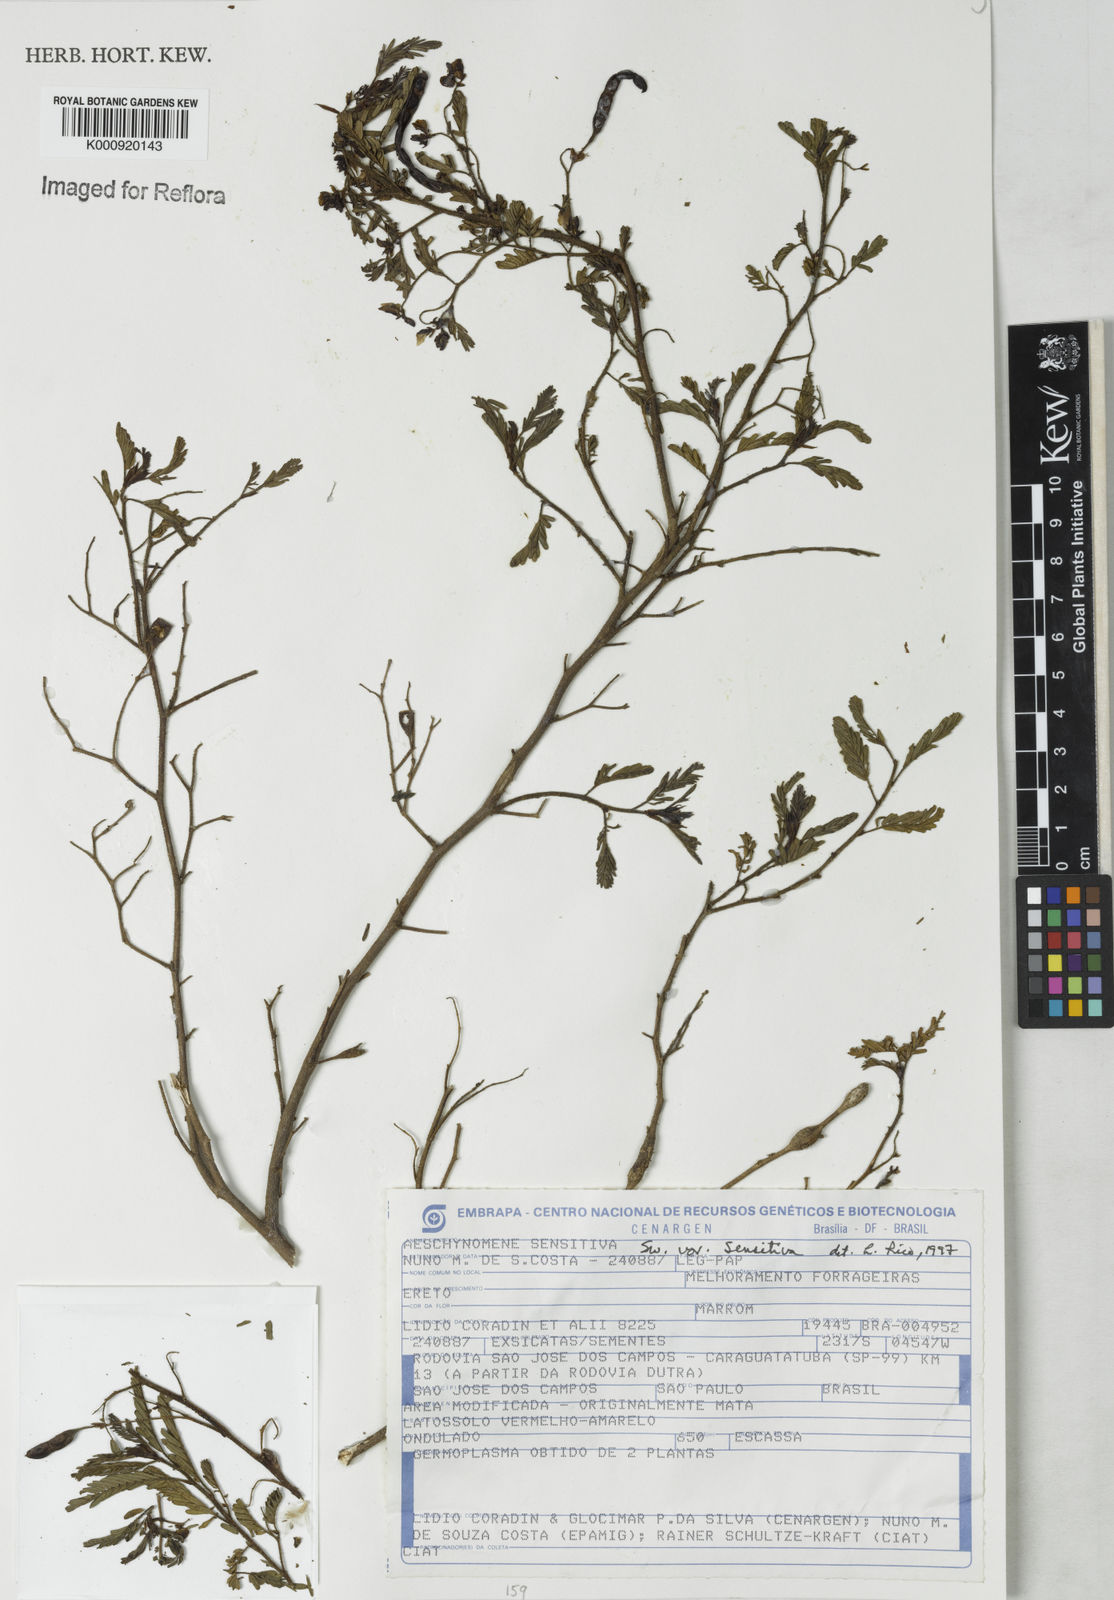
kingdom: Plantae
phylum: Tracheophyta
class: Magnoliopsida
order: Fabales
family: Fabaceae
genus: Aeschynomene
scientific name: Aeschynomene sensitiva
